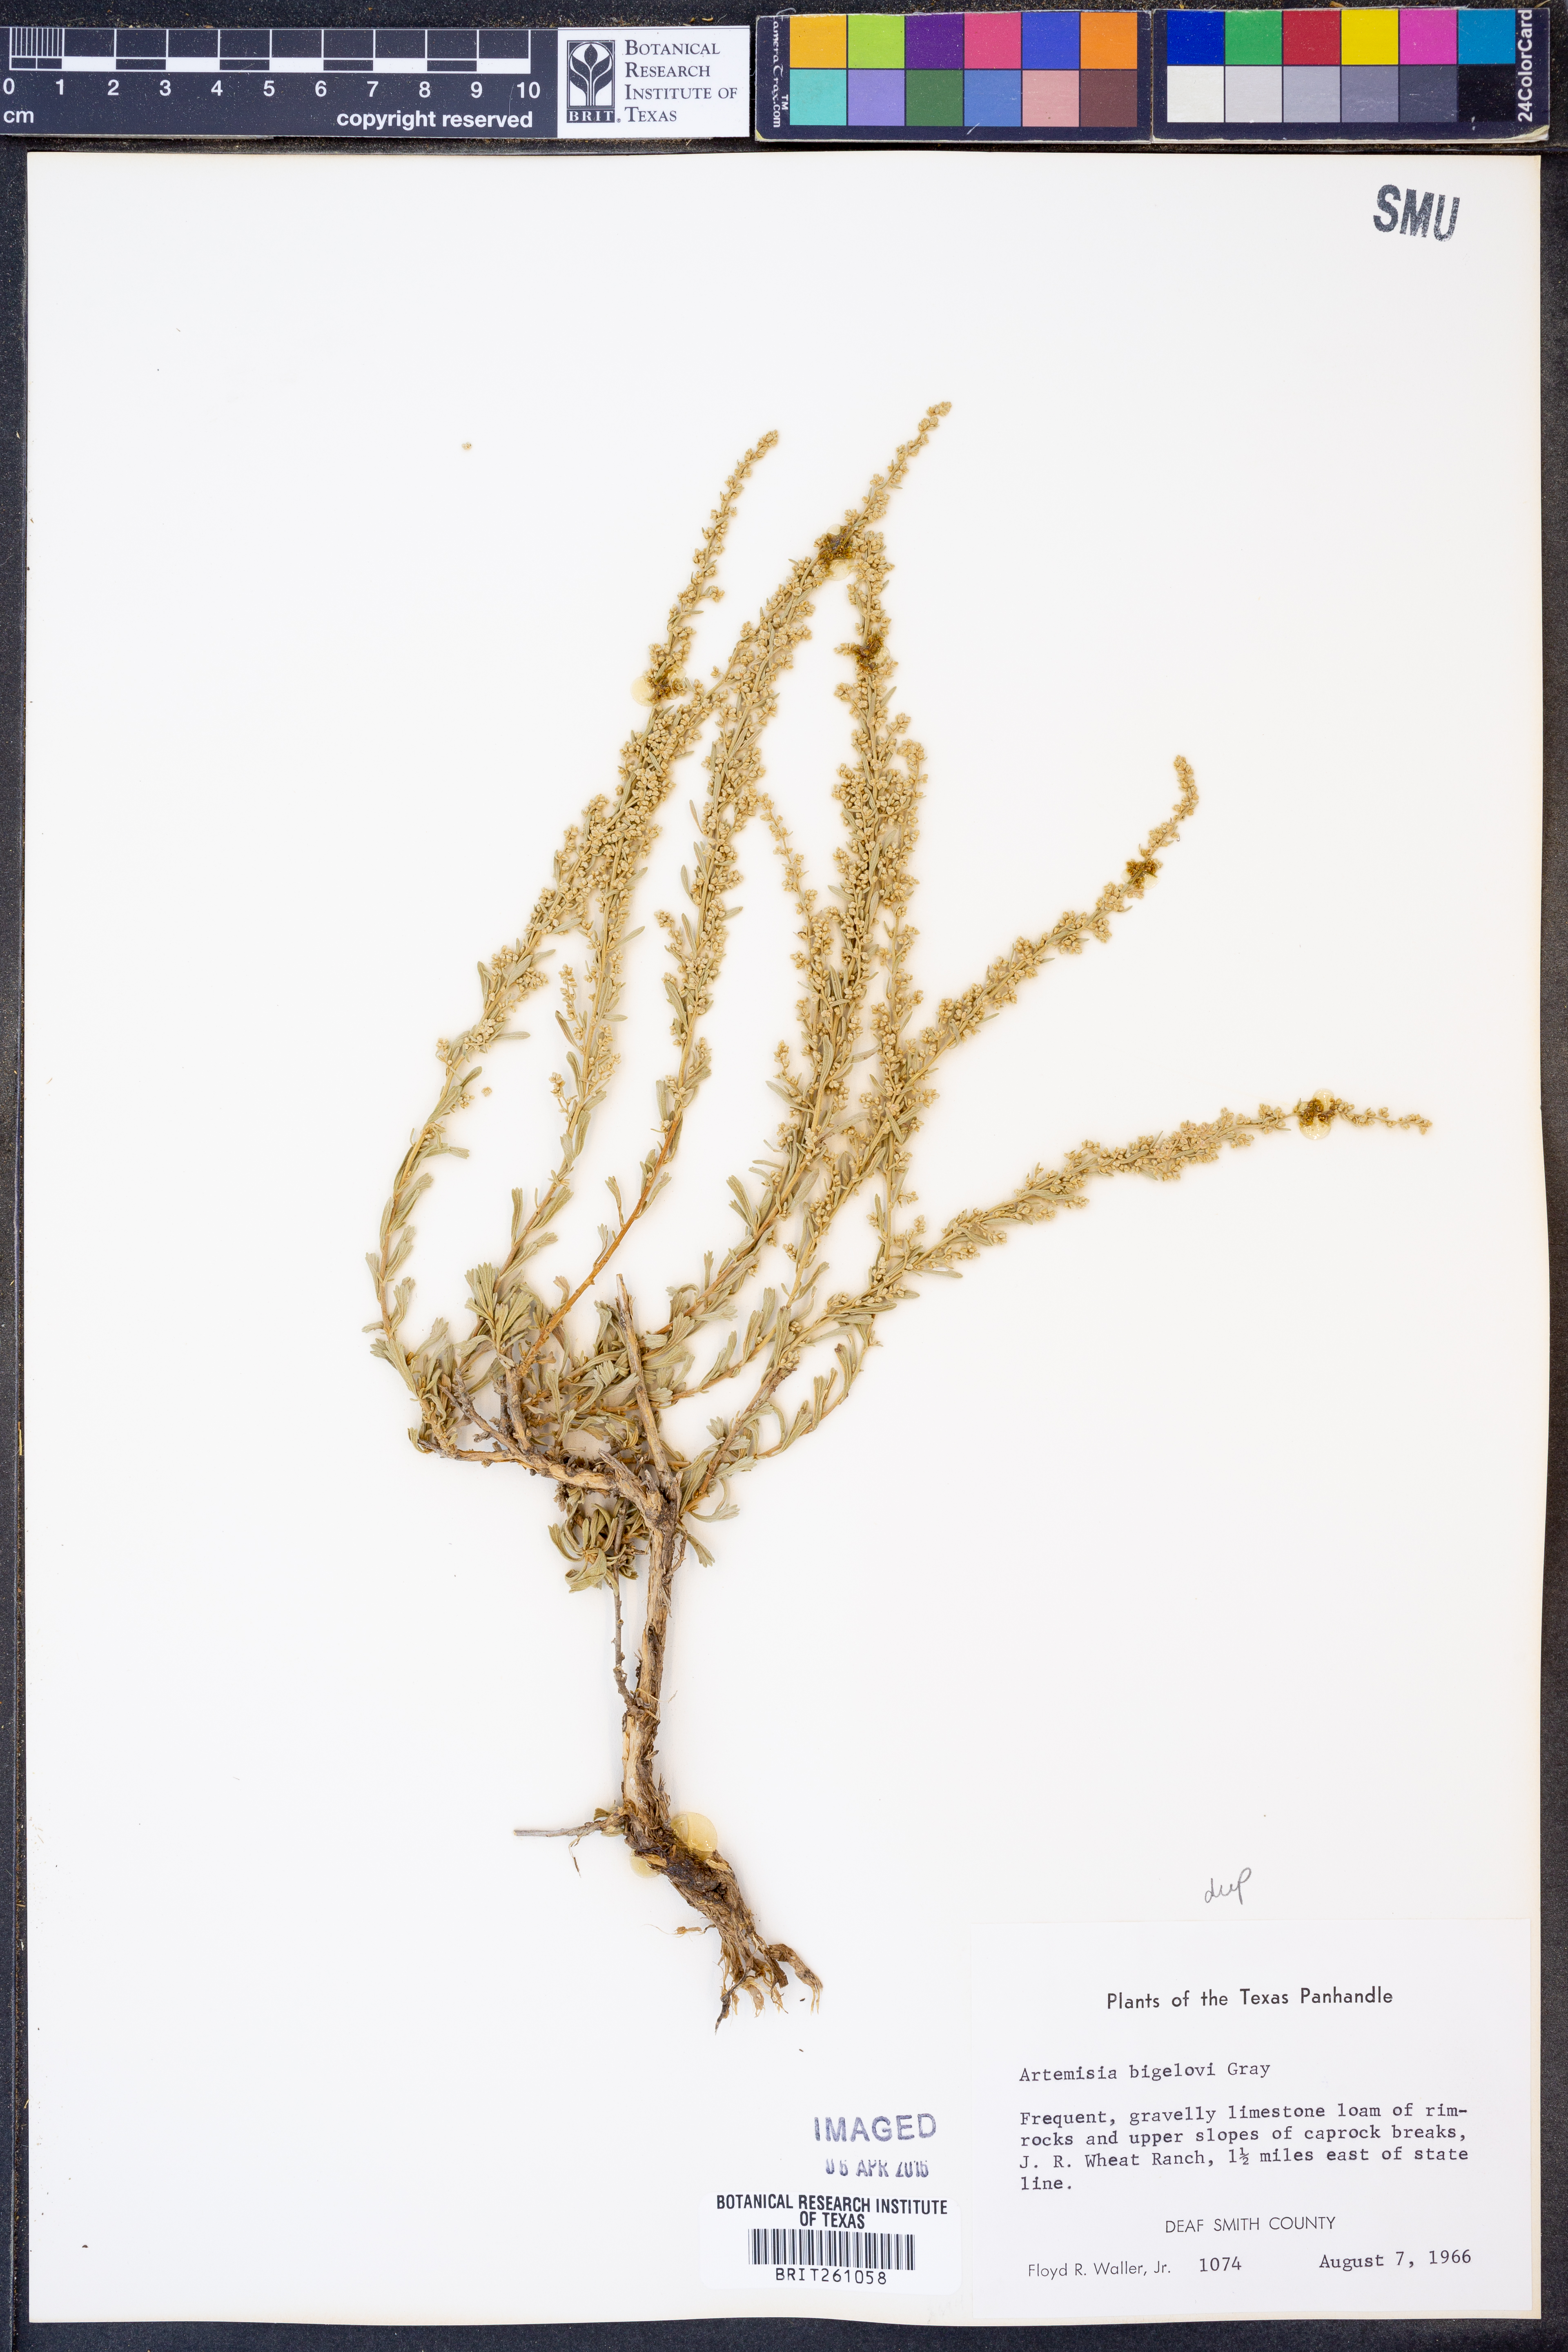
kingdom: Plantae
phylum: Tracheophyta
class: Magnoliopsida
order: Asterales
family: Asteraceae
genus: Artemisia
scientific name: Artemisia bigelovii
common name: Bigelow sagebrush
